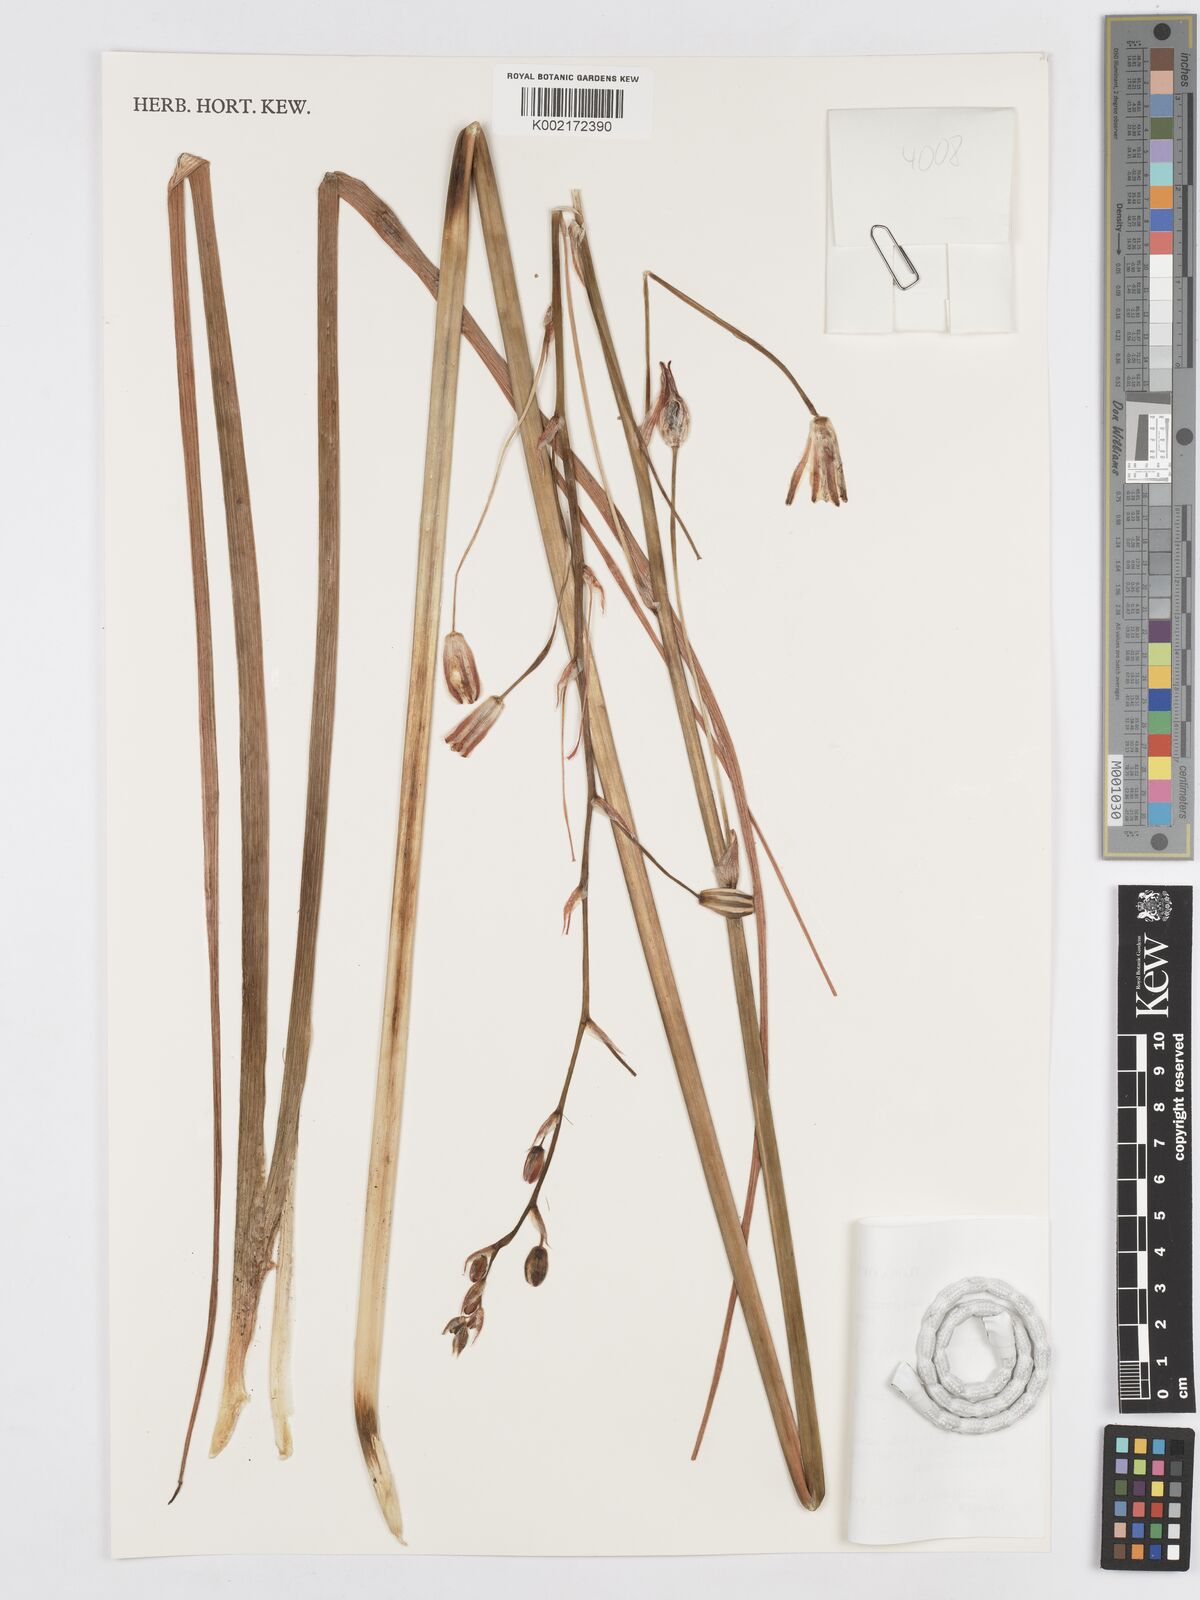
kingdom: Plantae
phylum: Tracheophyta
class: Liliopsida
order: Asparagales
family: Asparagaceae
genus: Albuca
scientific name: Albuca kirkii
